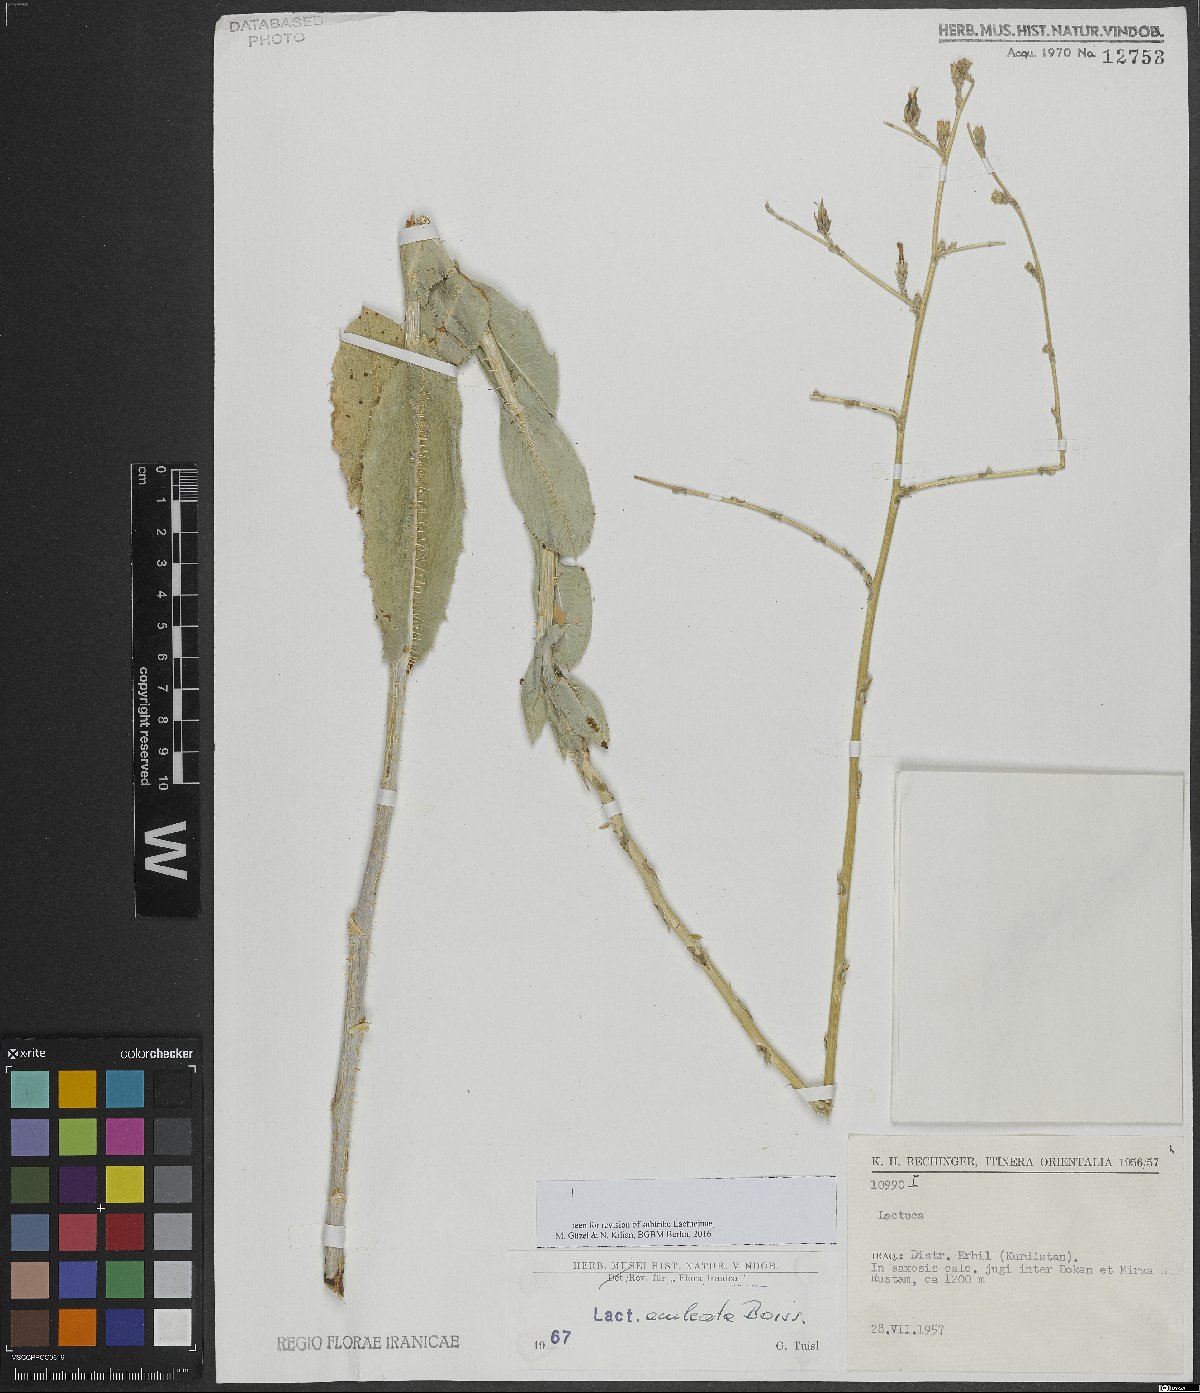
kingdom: Plantae
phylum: Tracheophyta
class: Magnoliopsida
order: Asterales
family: Asteraceae
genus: Lactuca
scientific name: Lactuca aculeata
